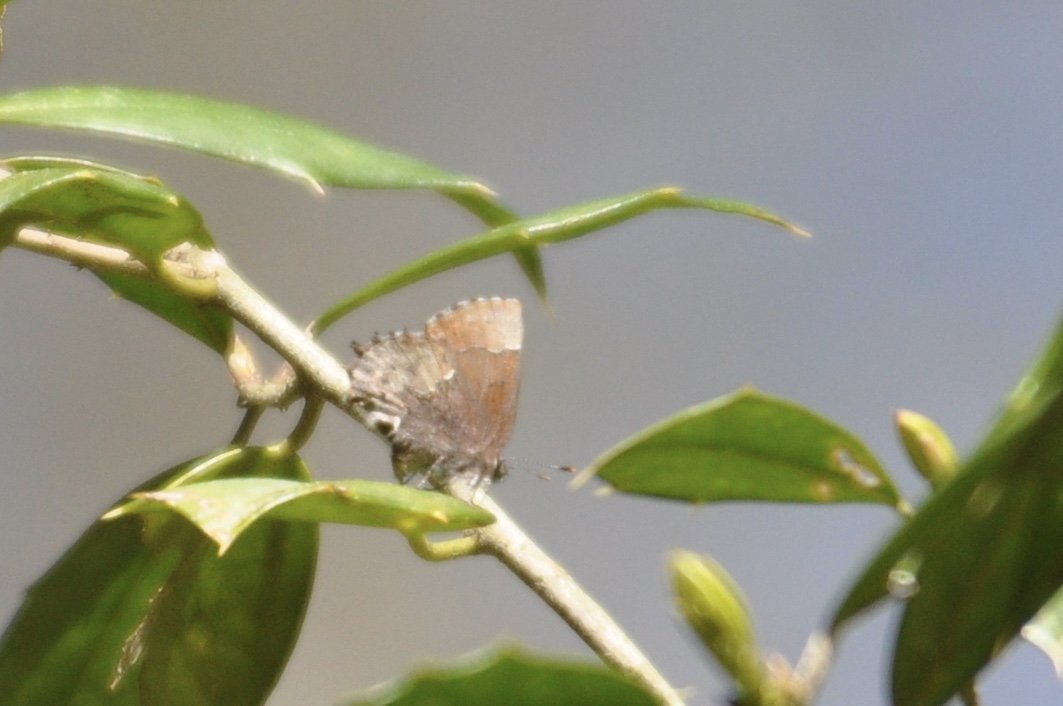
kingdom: Animalia
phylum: Arthropoda
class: Insecta
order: Lepidoptera
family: Lycaenidae
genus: Incisalia
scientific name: Incisalia henrici
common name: Henry's Elfin
